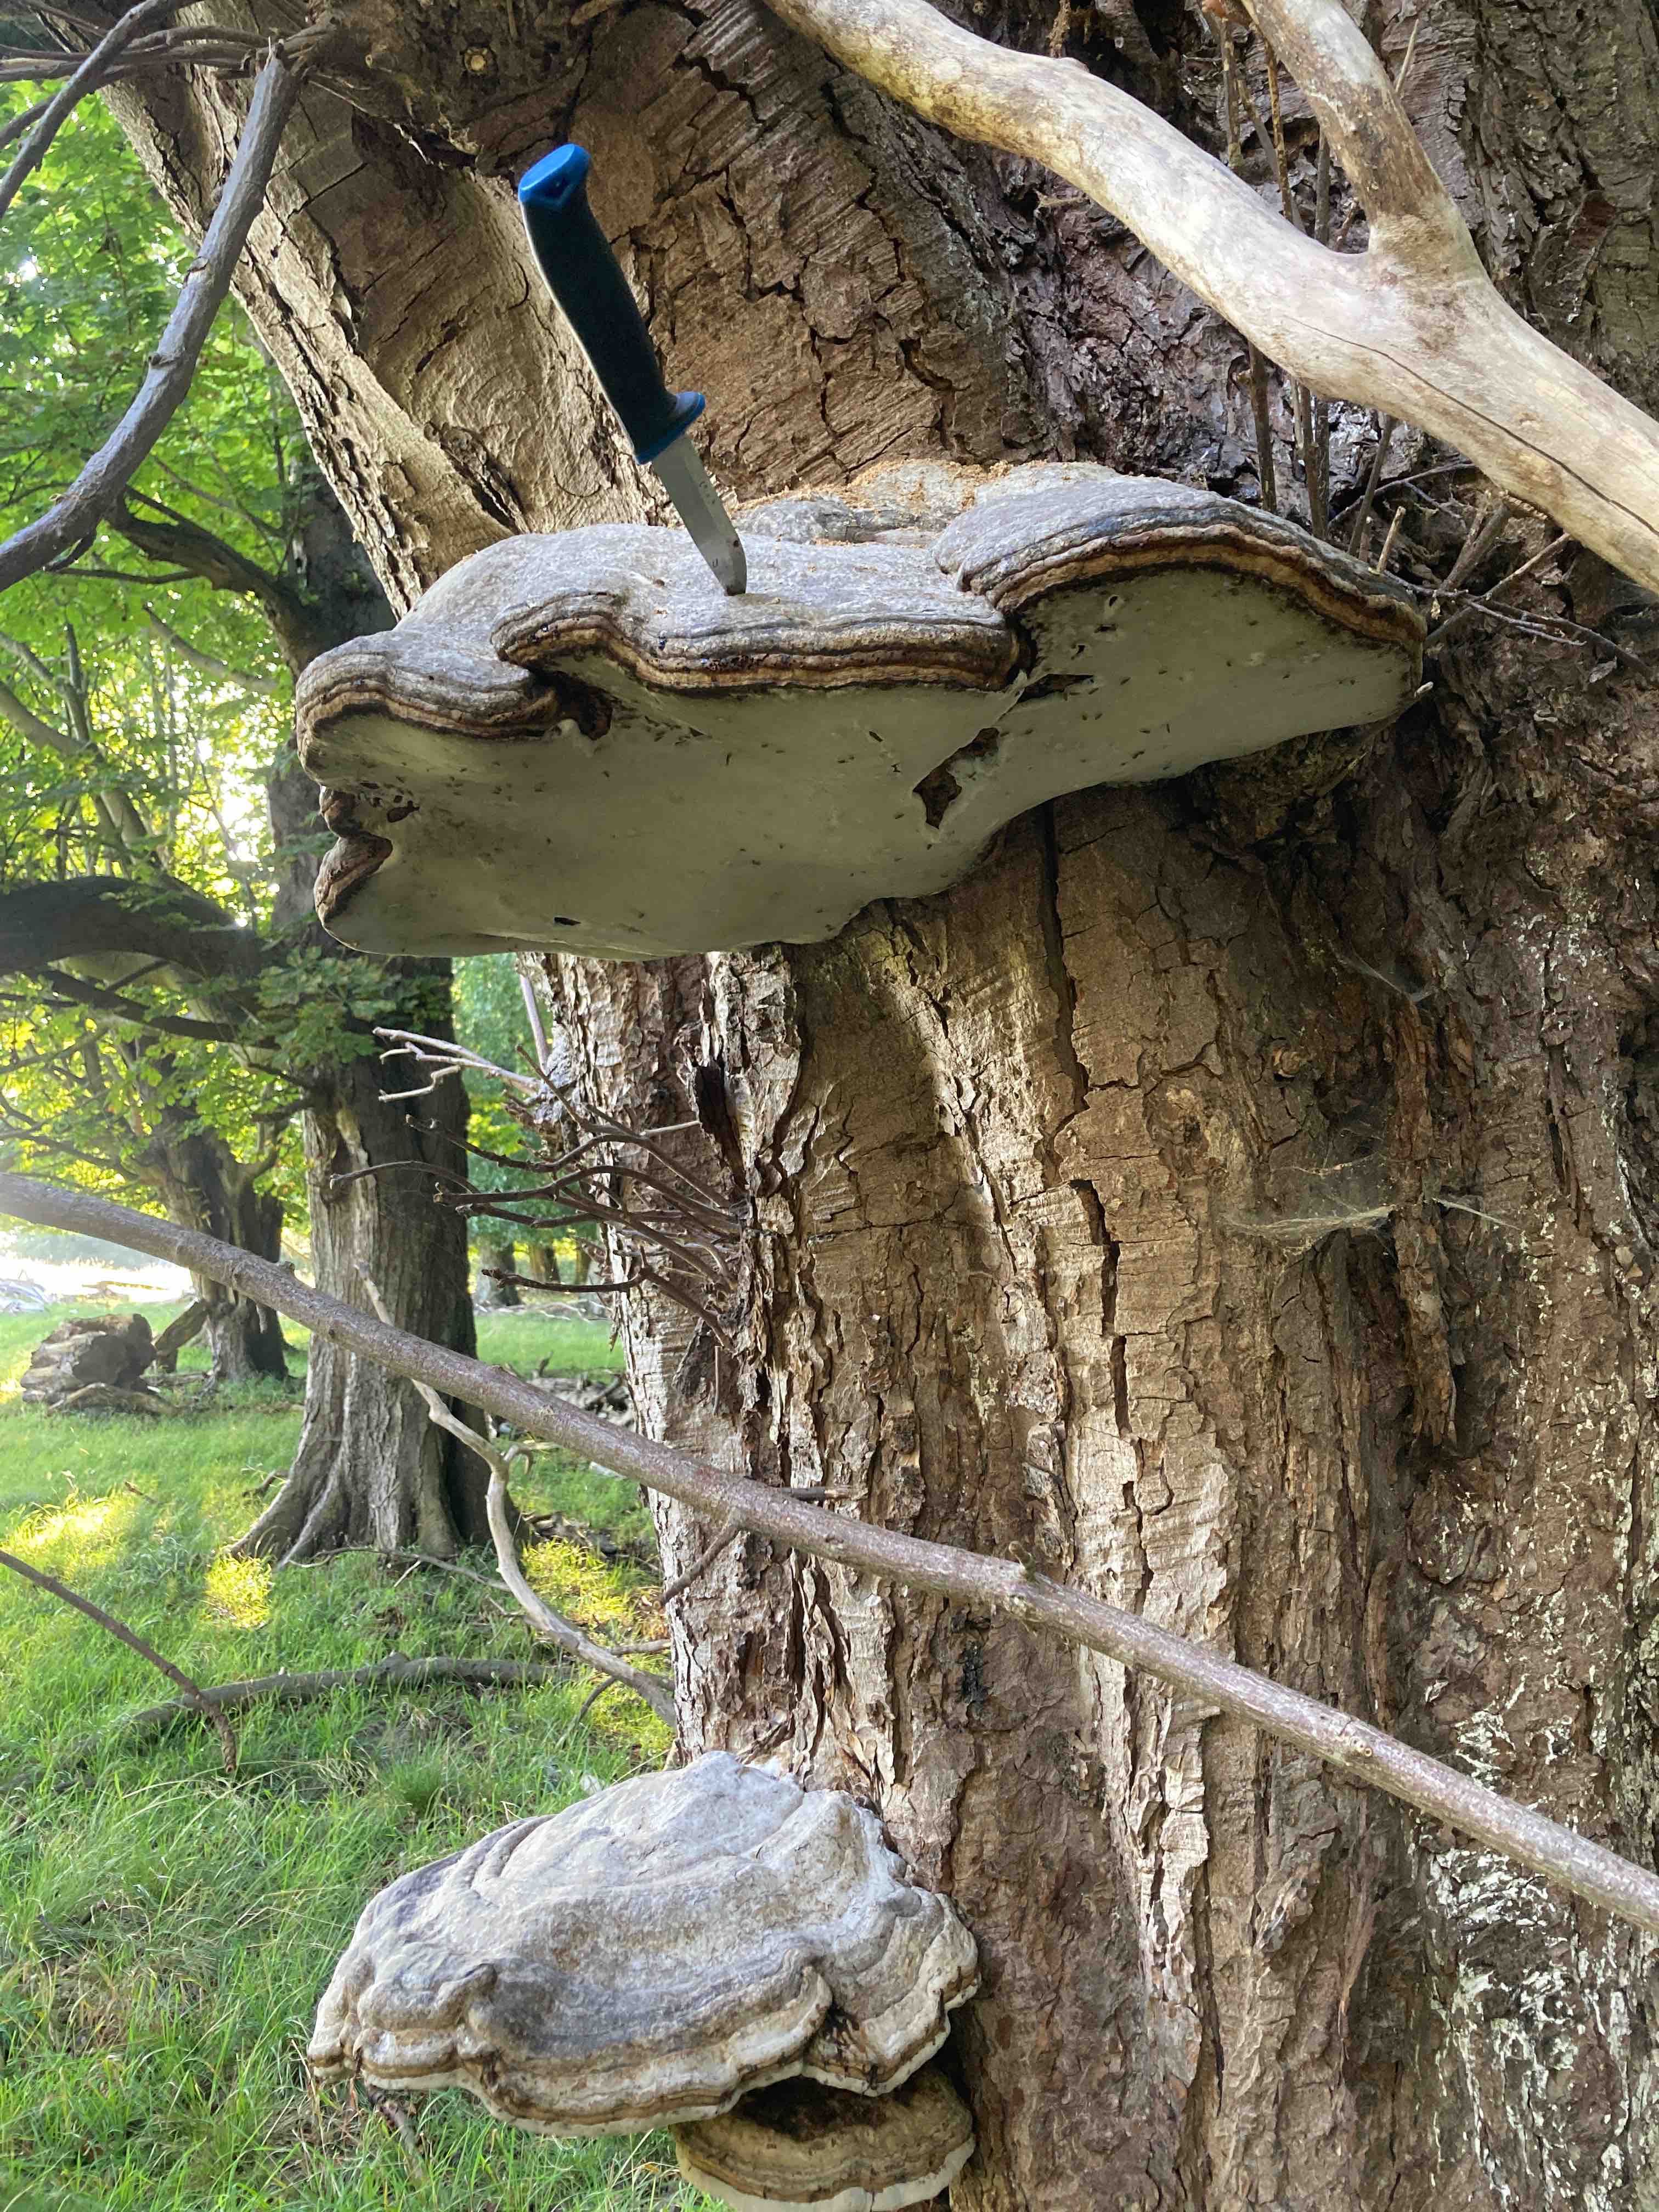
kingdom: Fungi
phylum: Basidiomycota
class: Agaricomycetes
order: Polyporales
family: Polyporaceae
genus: Fomes
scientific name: Fomes fomentarius
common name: tøndersvamp
